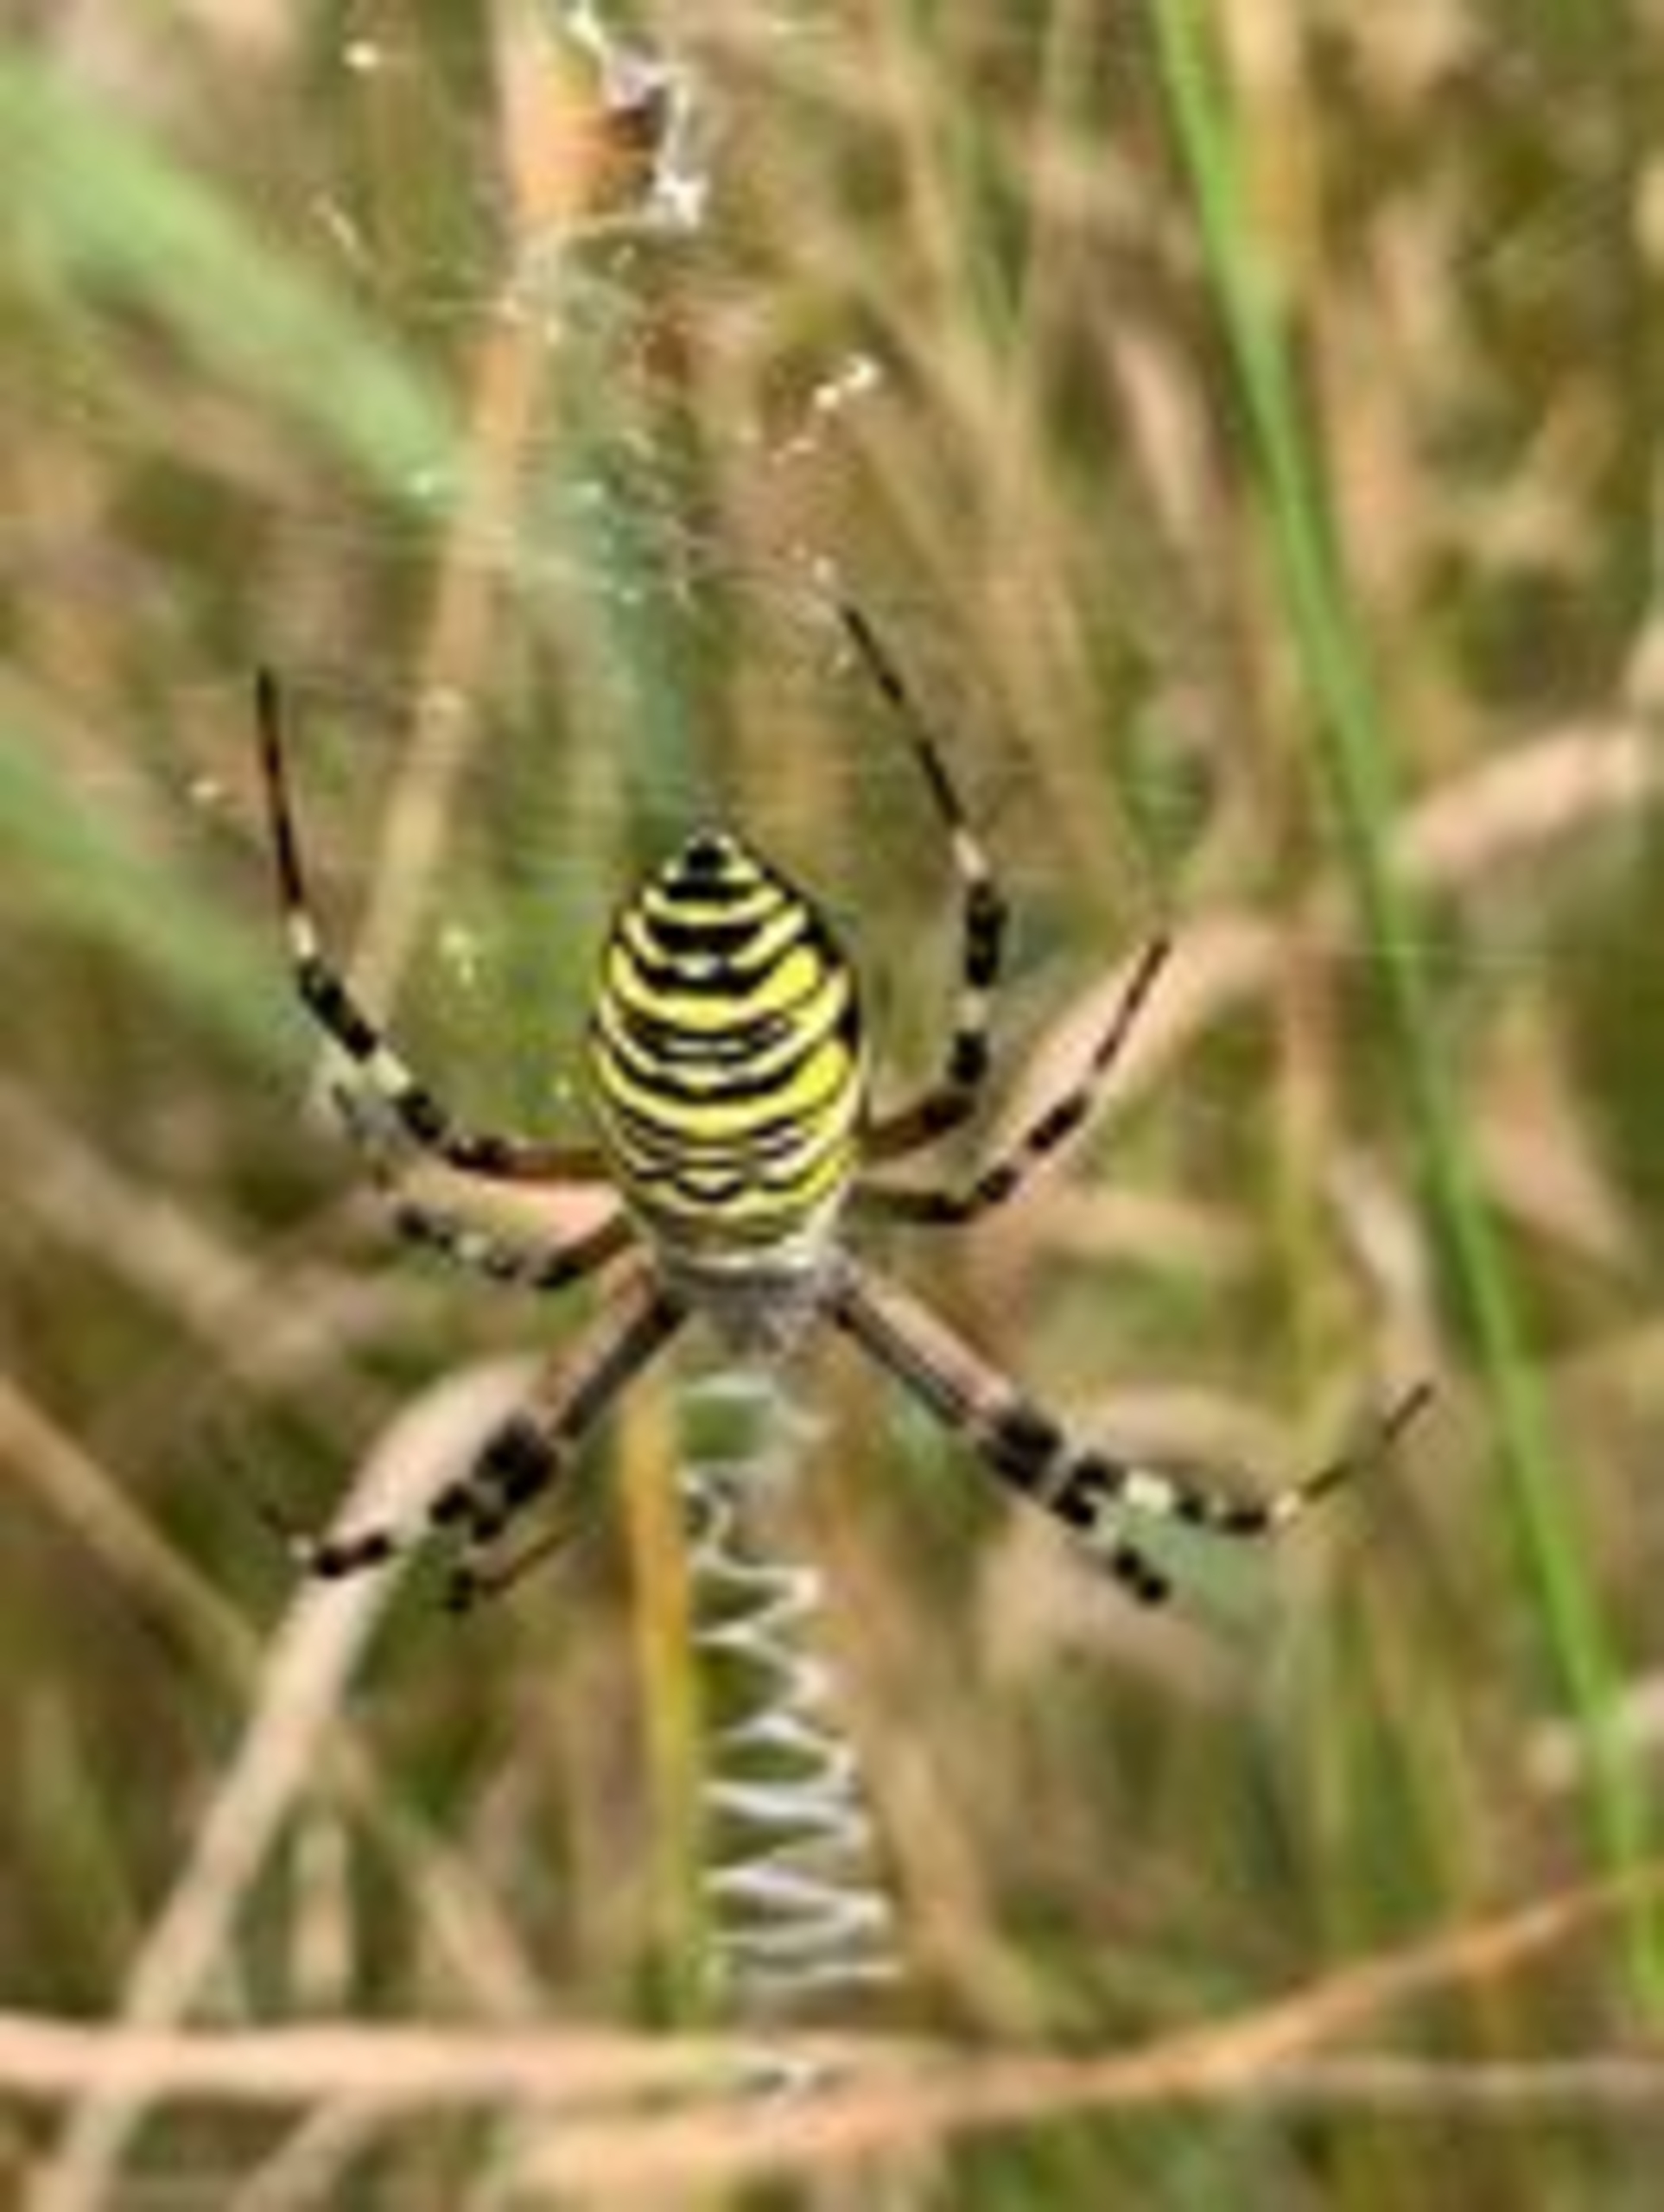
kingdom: Animalia
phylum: Arthropoda
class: Arachnida
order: Araneae
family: Araneidae
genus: Argiope
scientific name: Argiope bruennichi
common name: Hvepseedderkop
